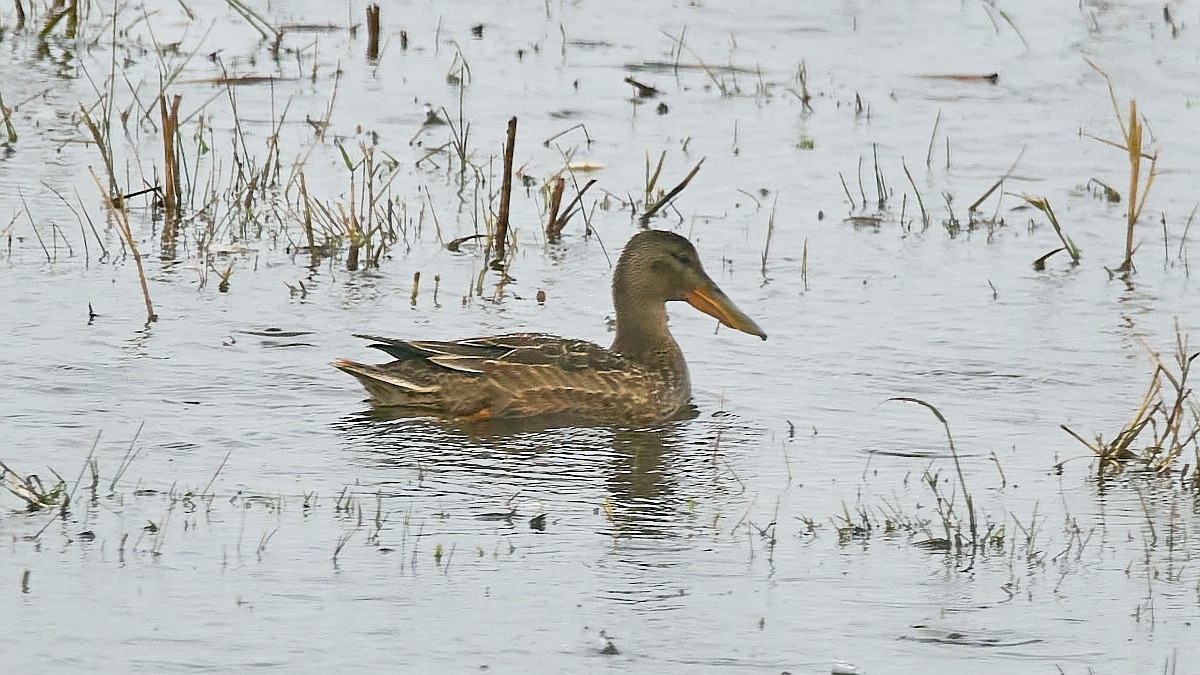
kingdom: Animalia
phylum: Chordata
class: Aves
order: Anseriformes
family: Anatidae
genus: Spatula
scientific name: Spatula clypeata
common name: Skeand
